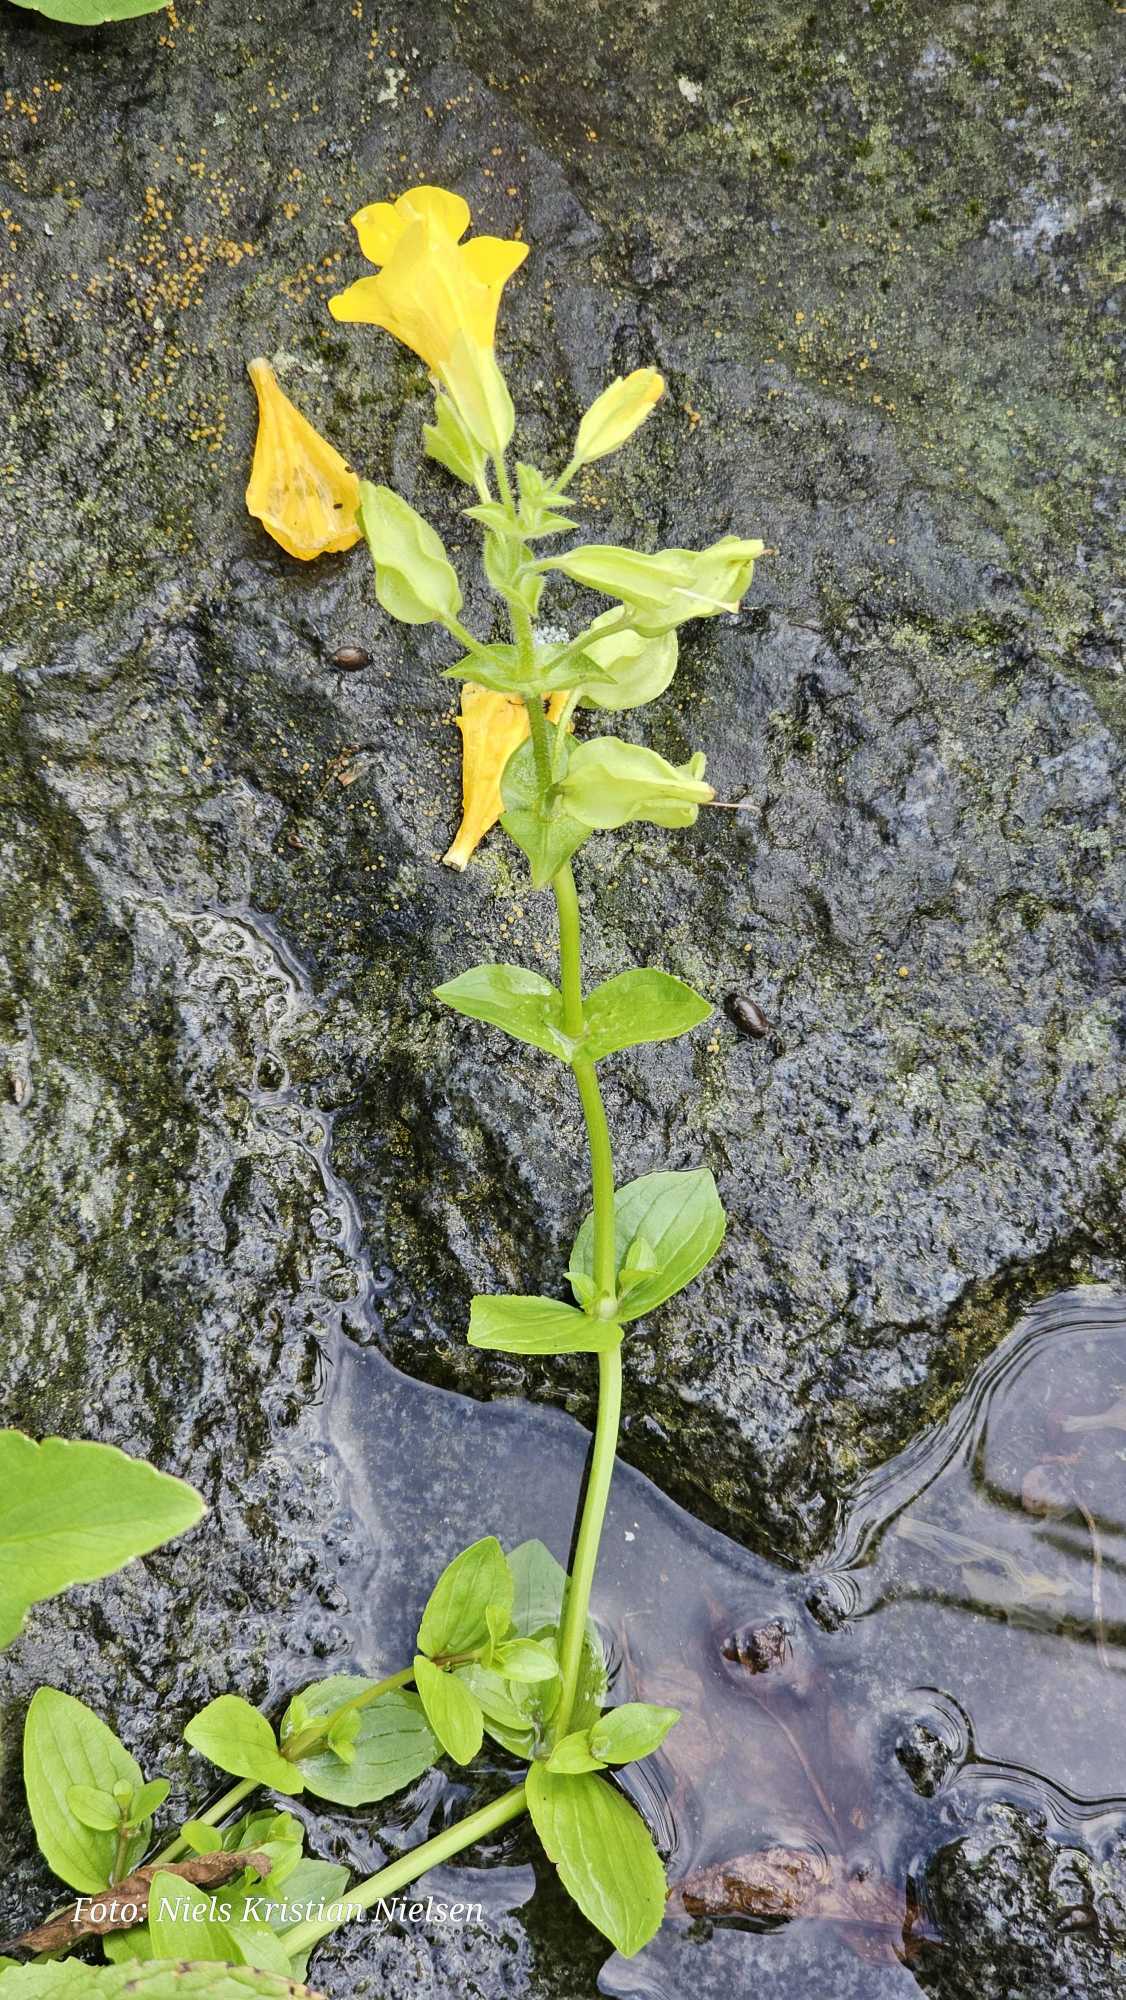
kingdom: Plantae
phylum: Tracheophyta
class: Magnoliopsida
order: Lamiales
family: Phrymaceae
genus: Erythranthe
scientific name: Erythranthe guttata
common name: Abeblomst
